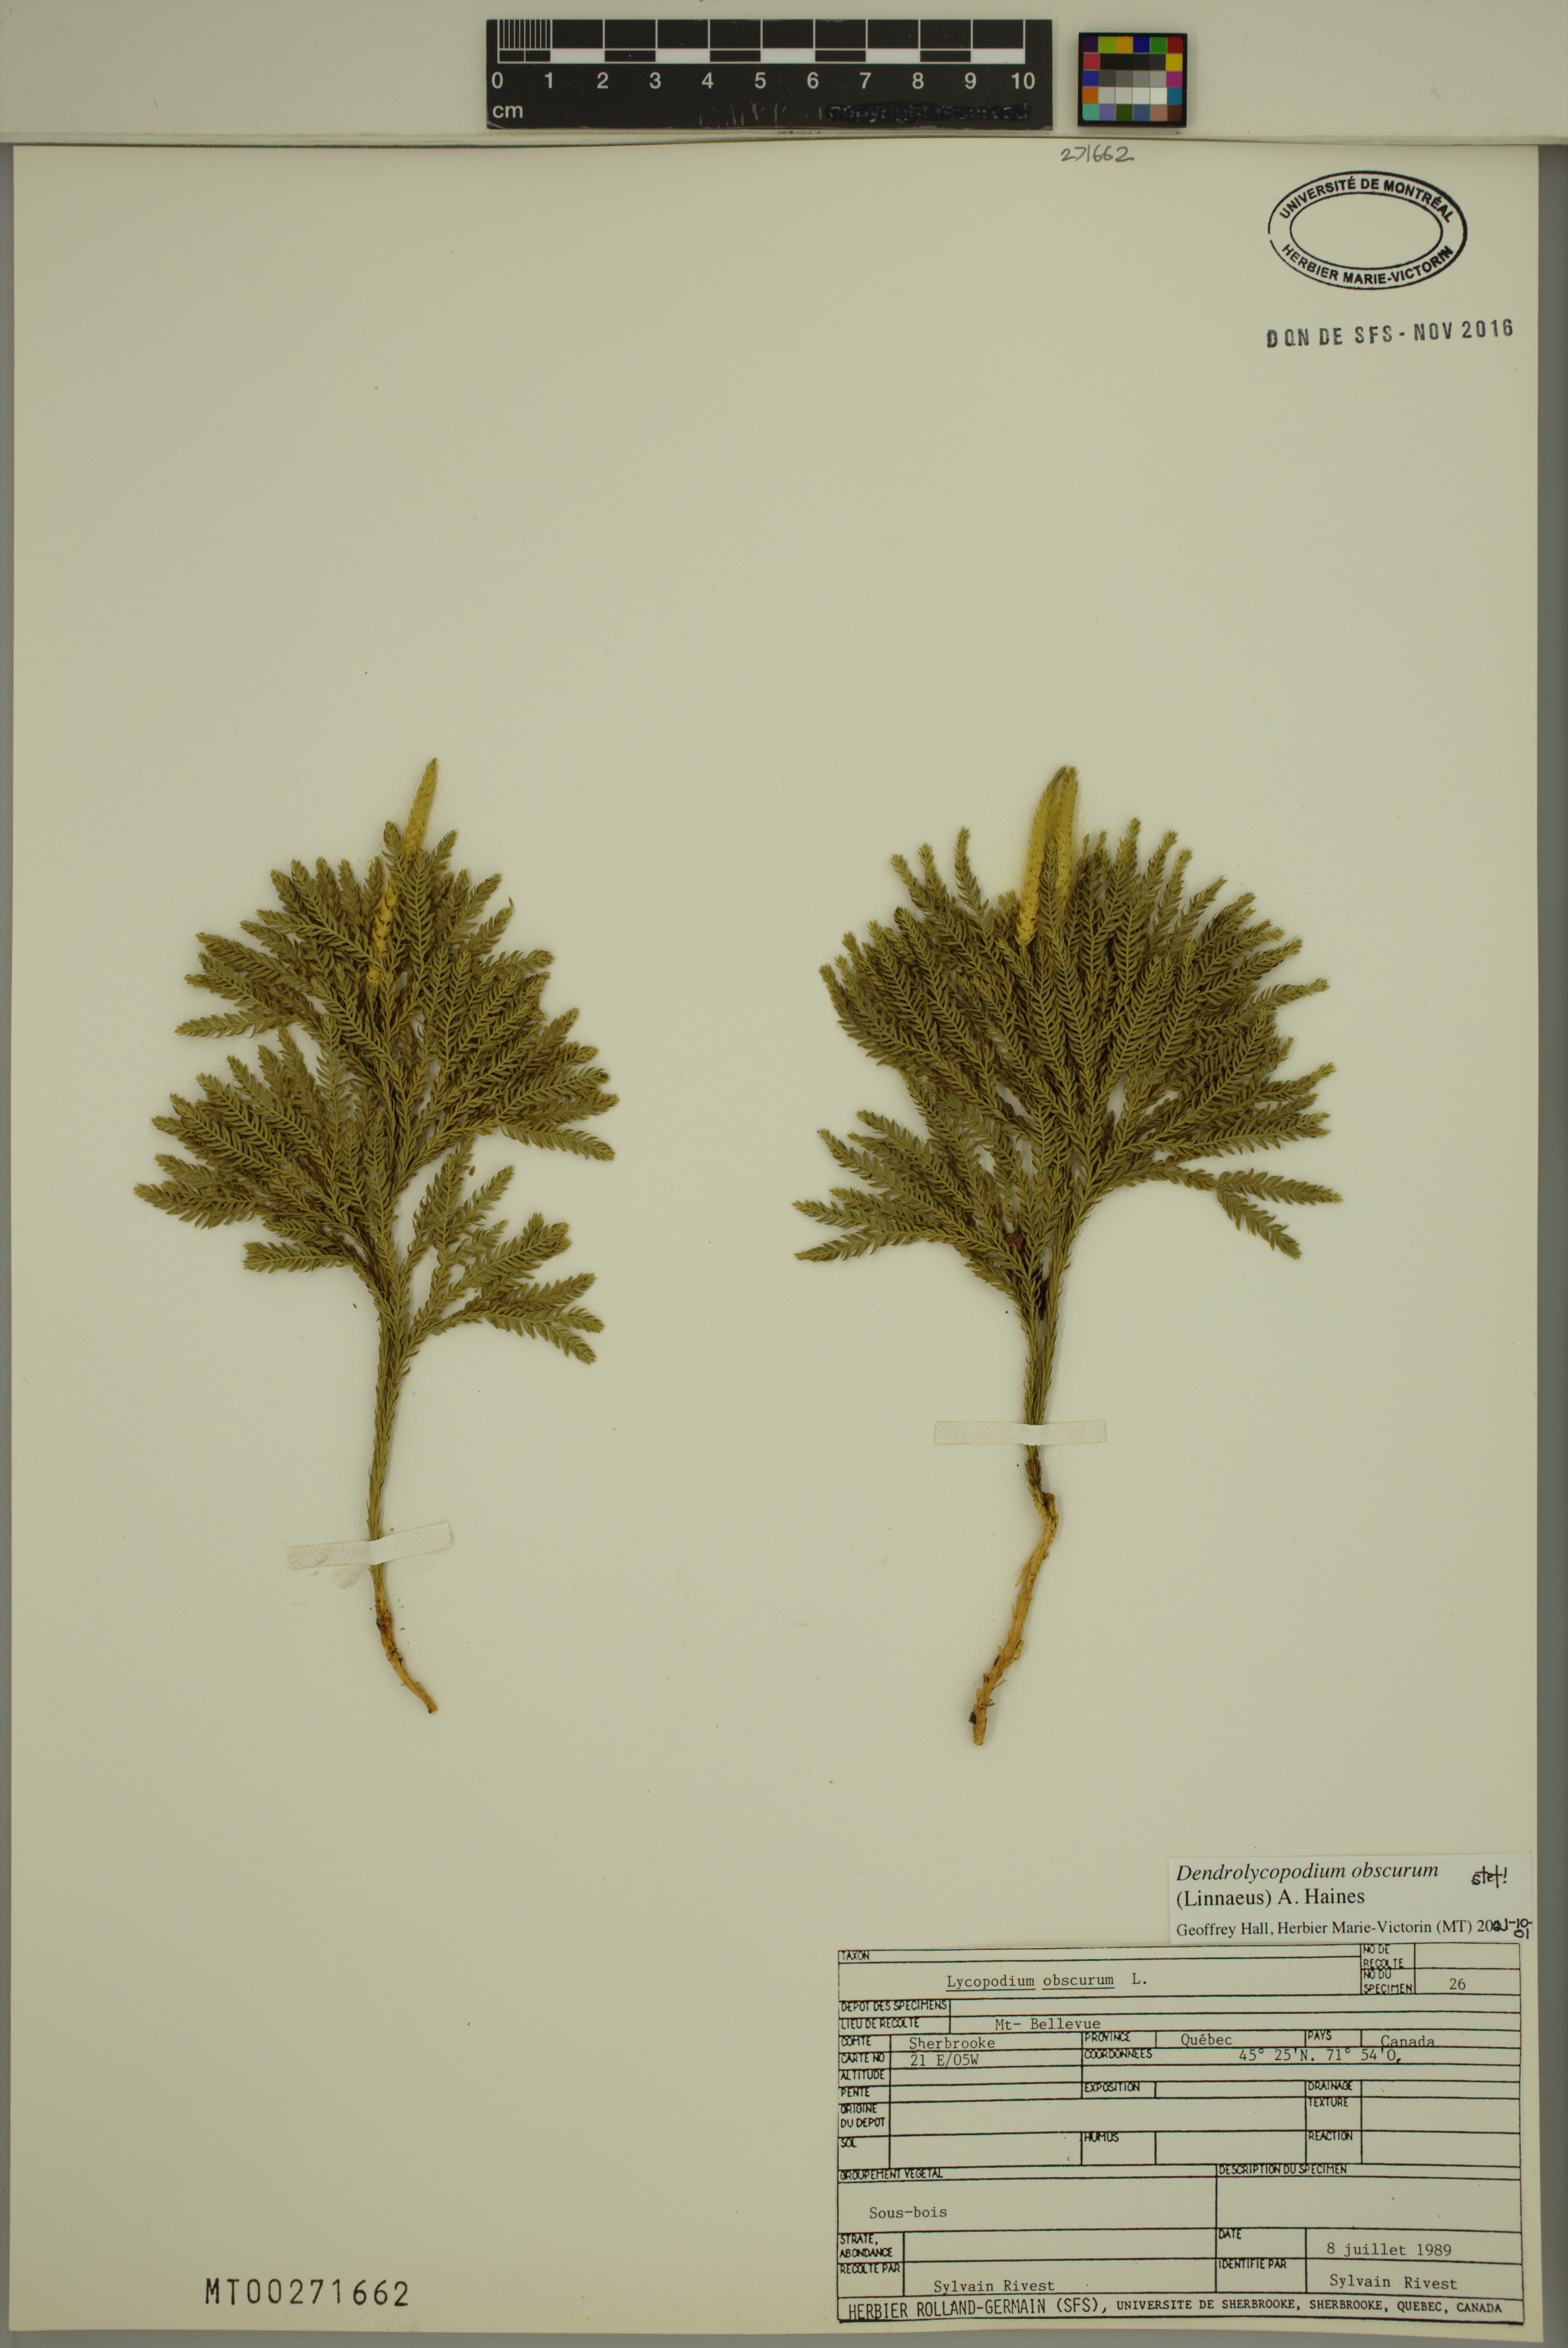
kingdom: Plantae
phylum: Tracheophyta
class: Lycopodiopsida
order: Lycopodiales
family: Lycopodiaceae
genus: Dendrolycopodium
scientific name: Dendrolycopodium obscurum
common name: Common ground-pine
